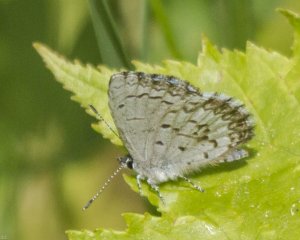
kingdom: Animalia
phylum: Arthropoda
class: Insecta
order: Lepidoptera
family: Lycaenidae
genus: Celastrina
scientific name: Celastrina lucia
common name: Northern Spring Azure
